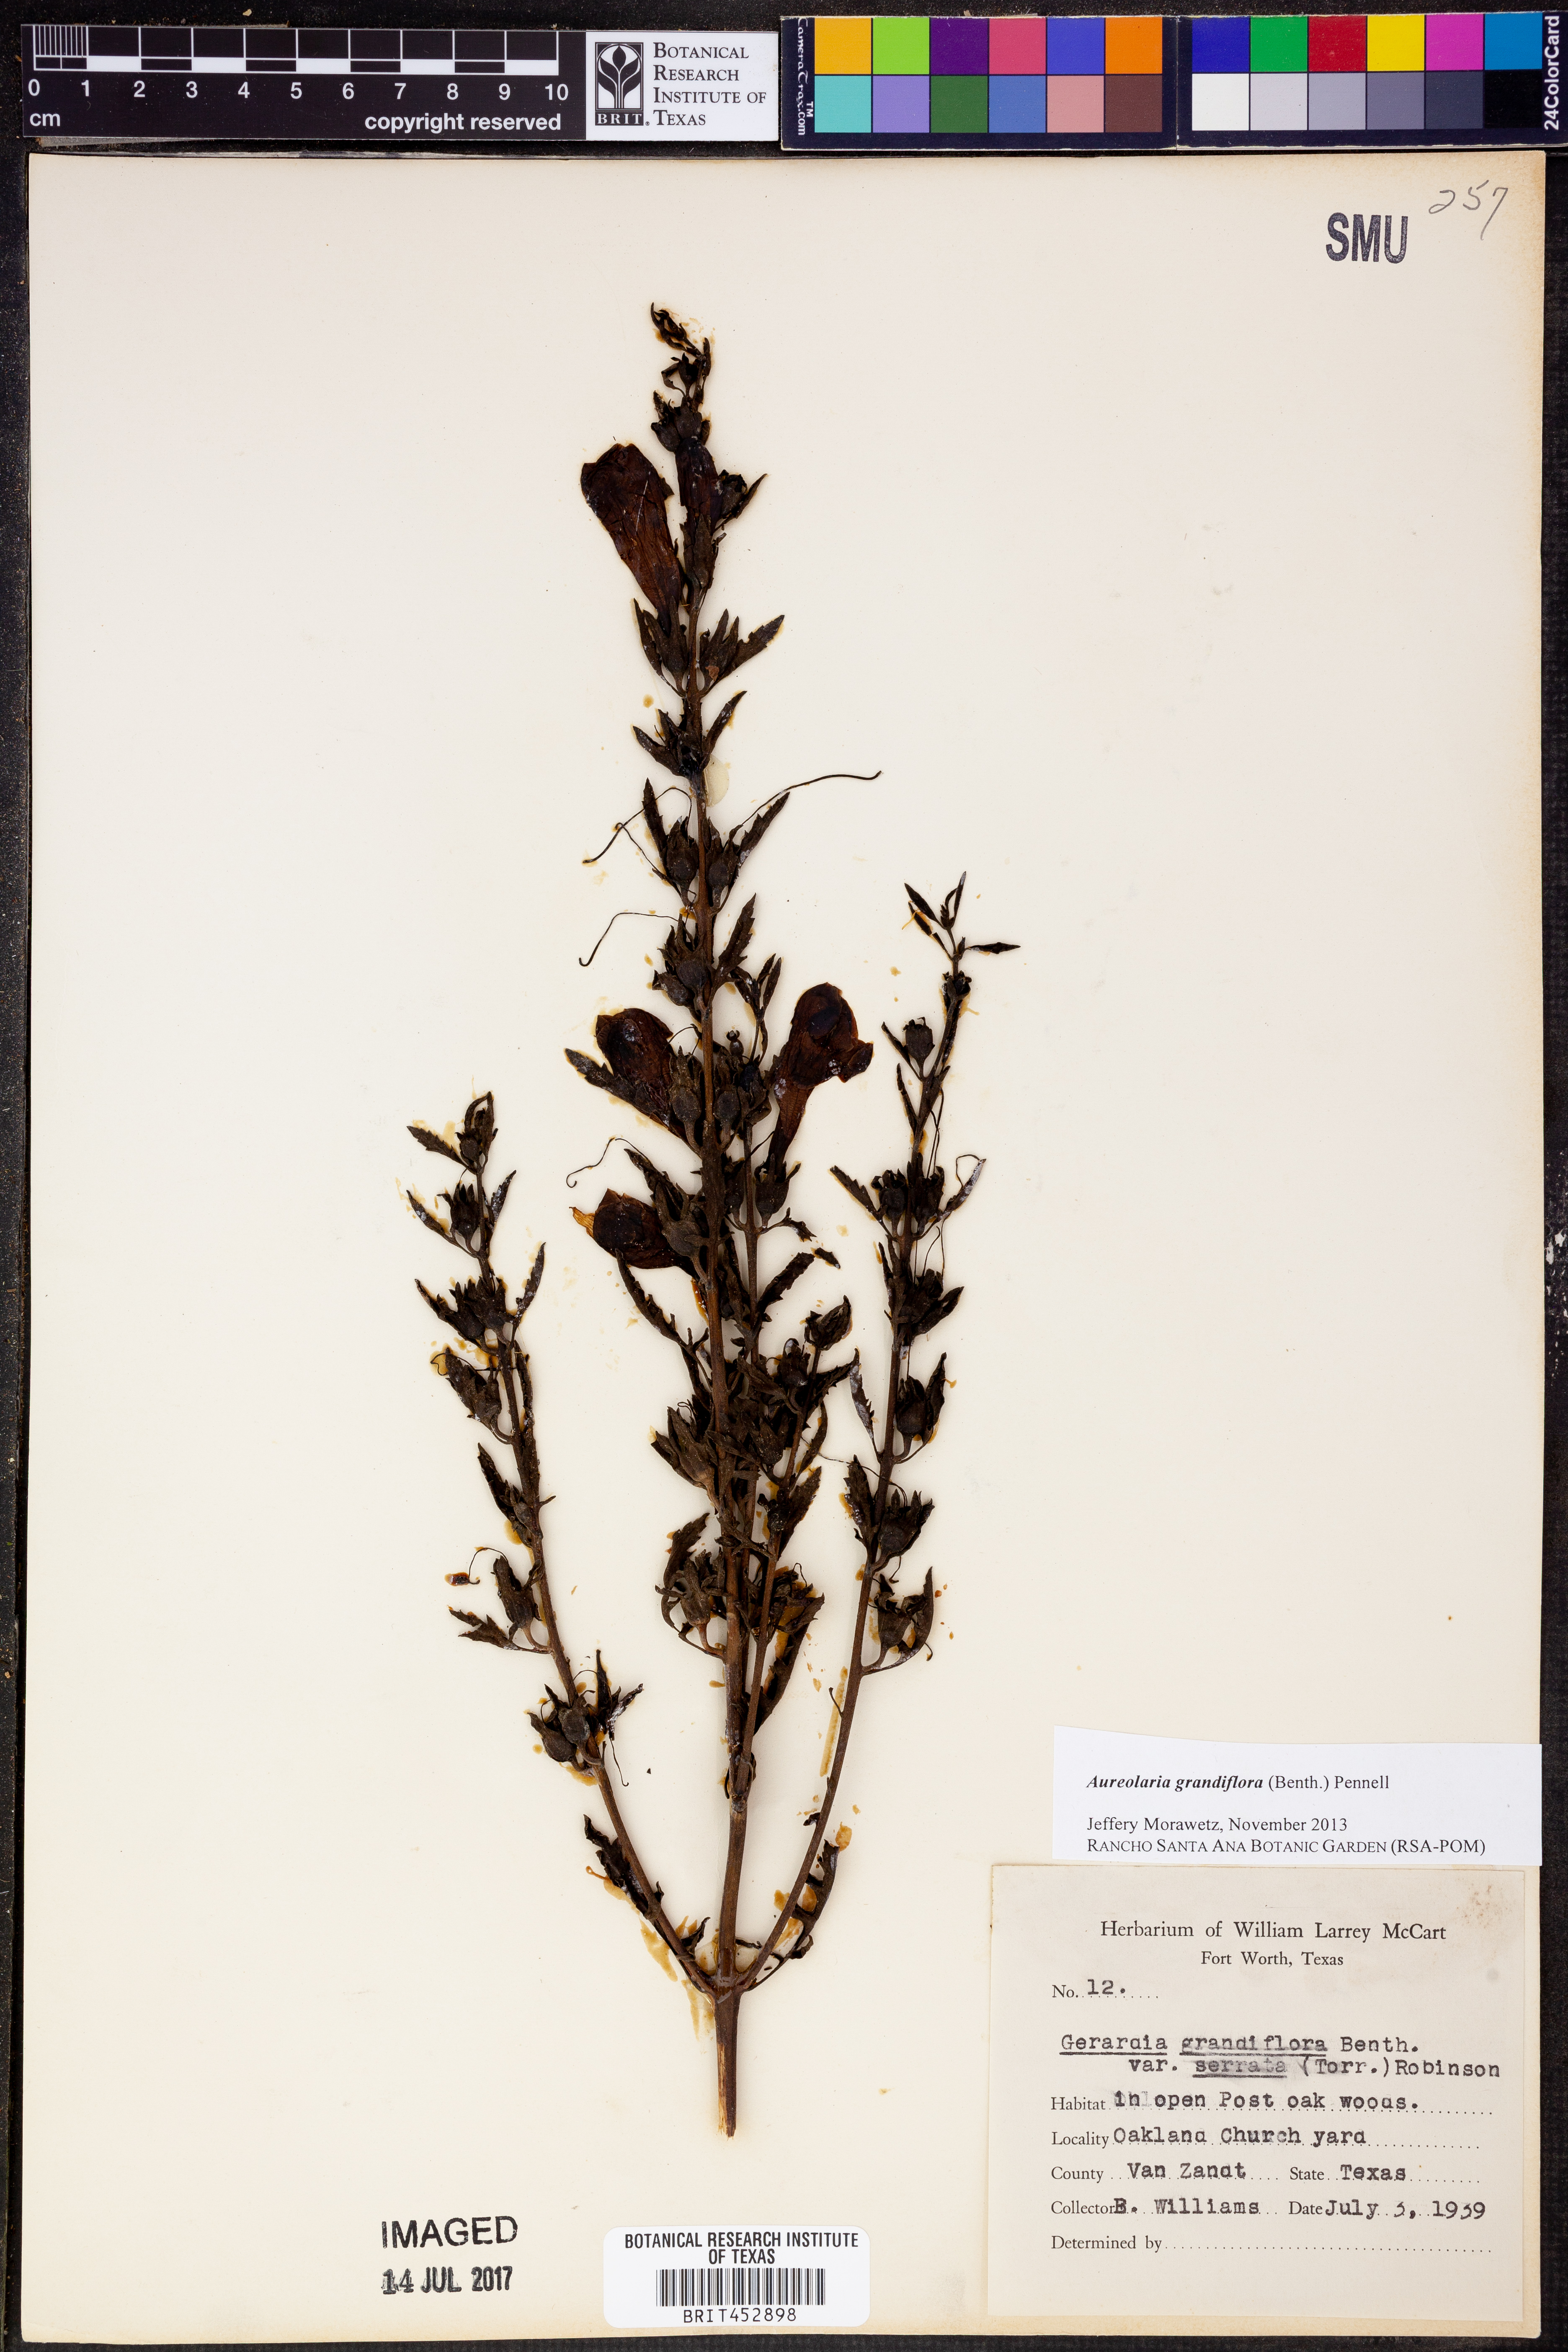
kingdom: Plantae
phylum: Tracheophyta
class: Magnoliopsida
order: Lamiales
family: Orobanchaceae
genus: Aureolaria
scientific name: Aureolaria grandiflora
